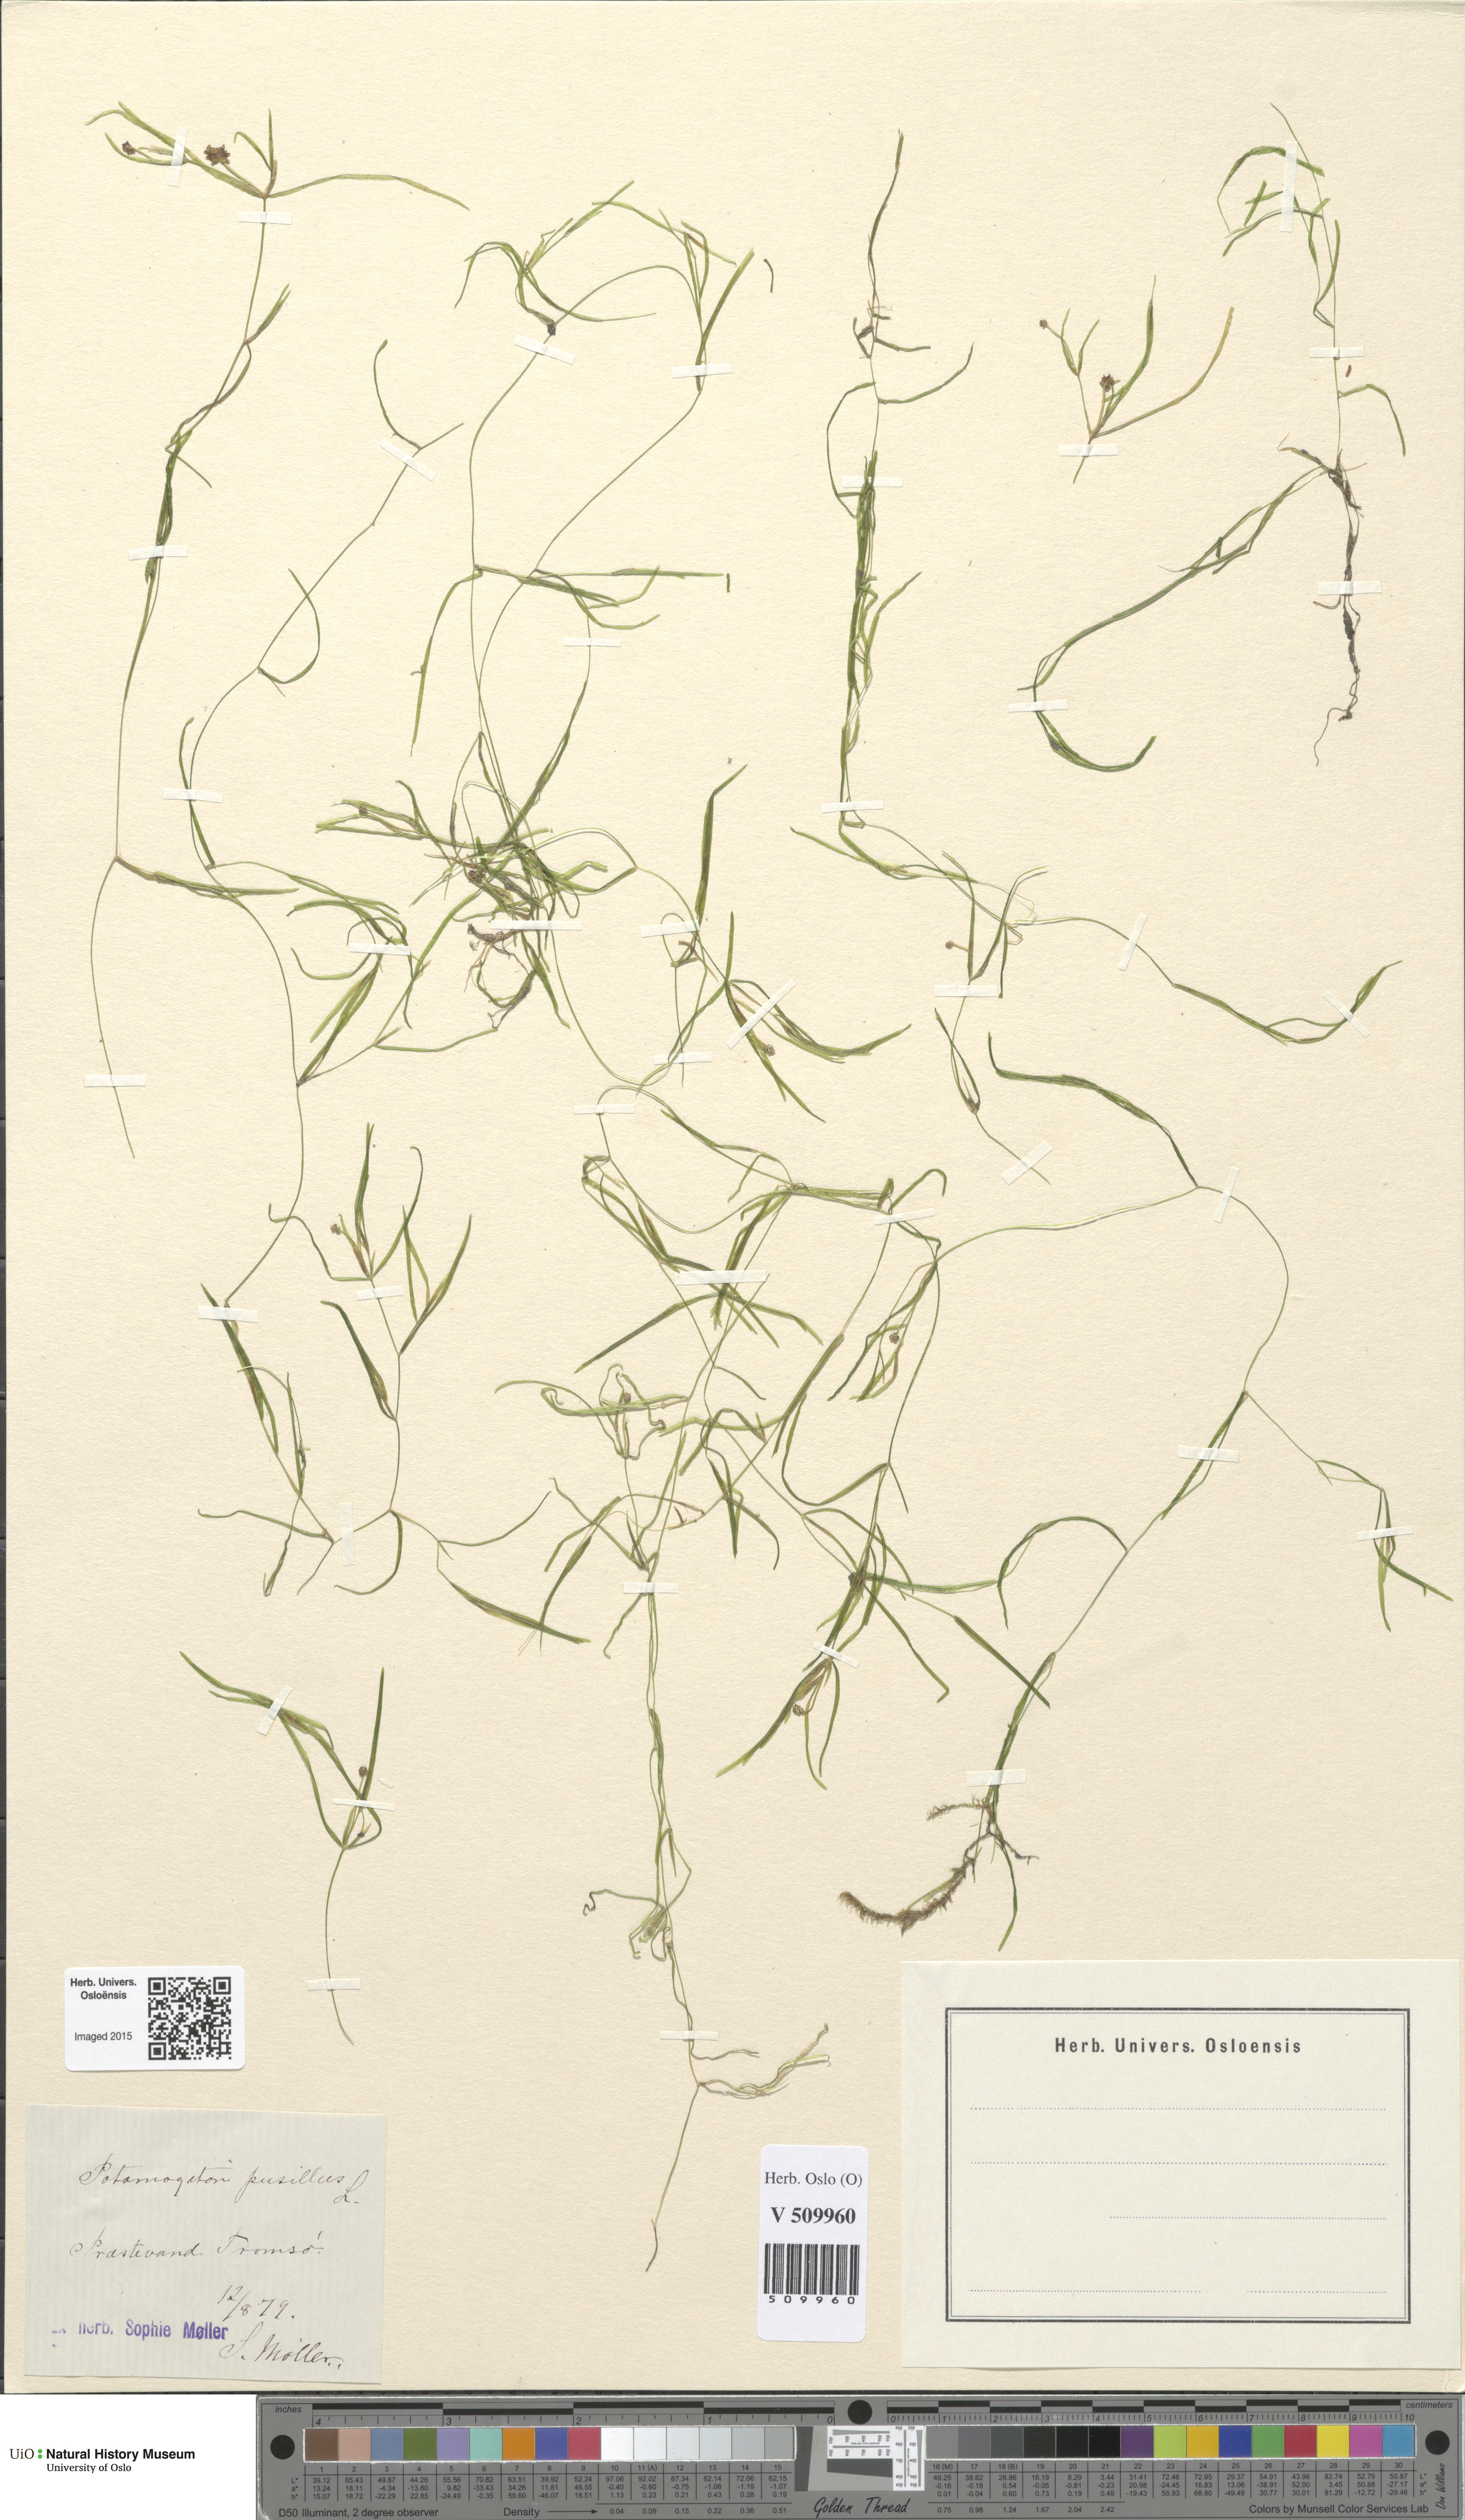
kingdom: Plantae
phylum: Tracheophyta
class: Liliopsida
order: Alismatales
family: Potamogetonaceae
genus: Potamogeton
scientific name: Potamogeton berchtoldii
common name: Small pondweed
